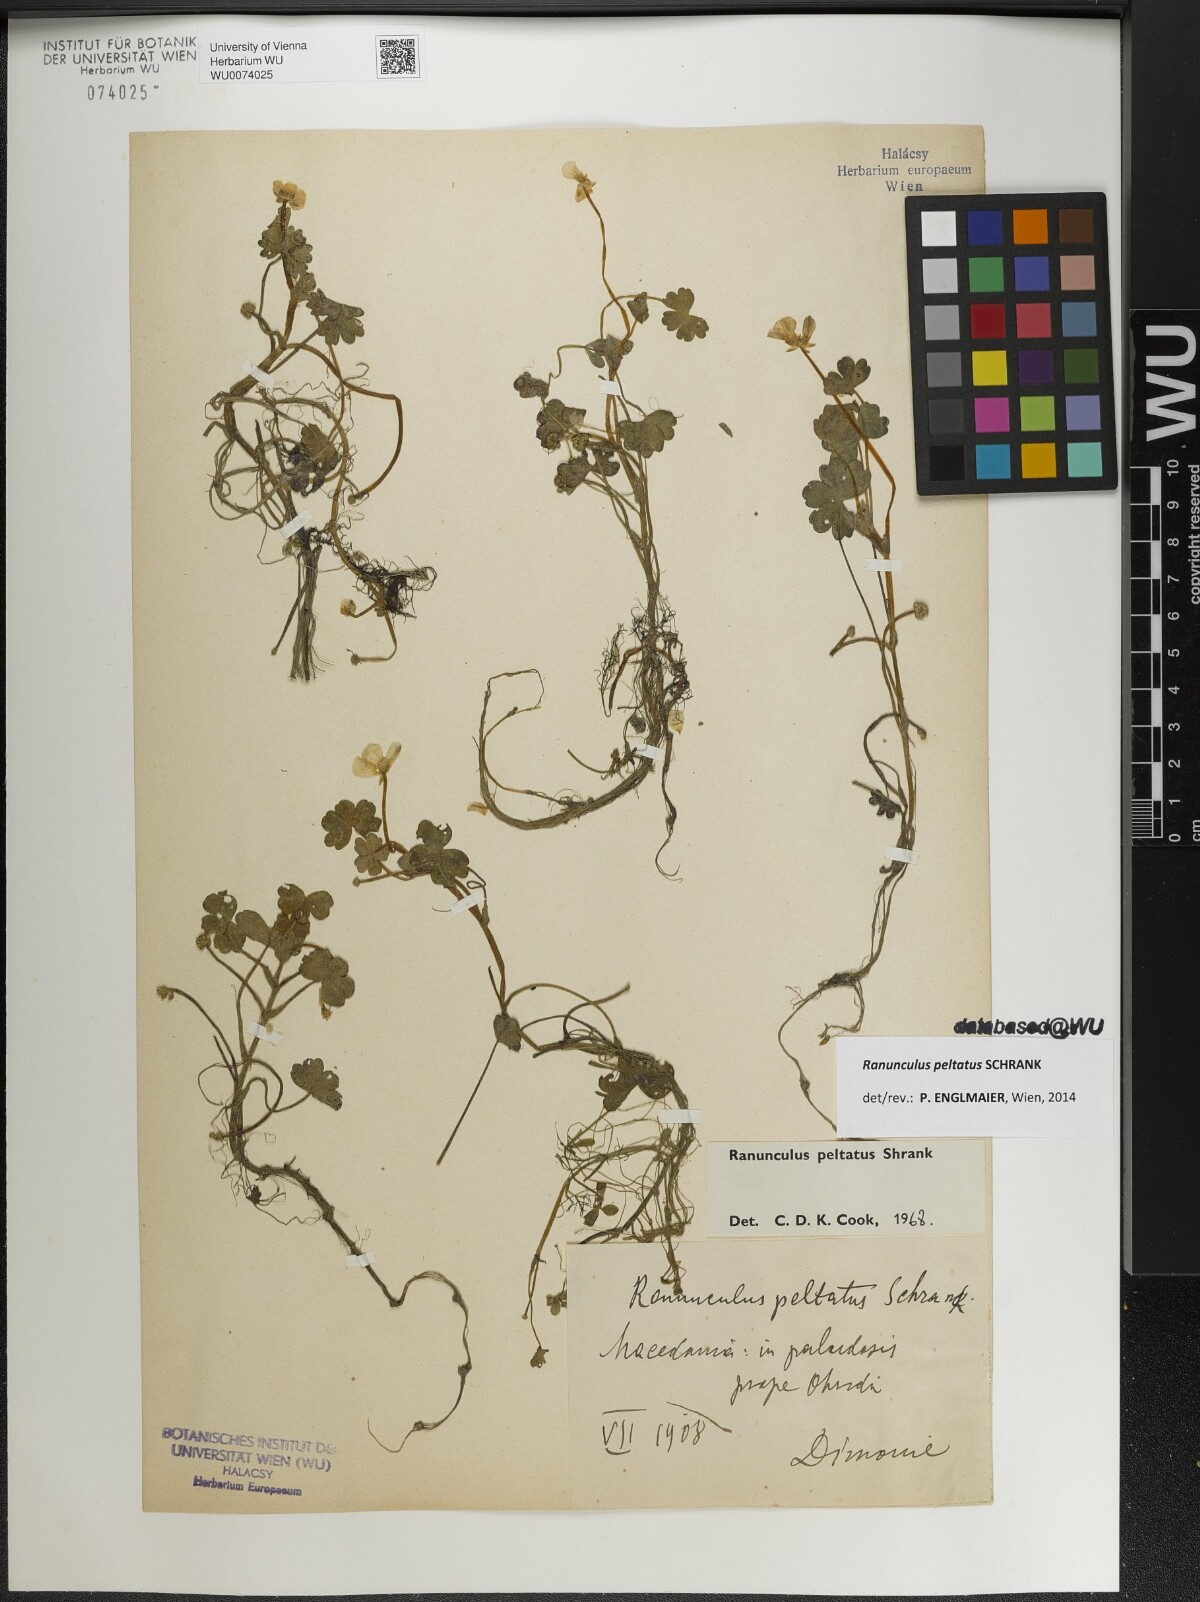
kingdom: Plantae
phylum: Tracheophyta
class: Magnoliopsida
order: Ranunculales
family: Ranunculaceae
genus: Ranunculus
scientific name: Ranunculus peltatus
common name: Pond water-crowfoot
